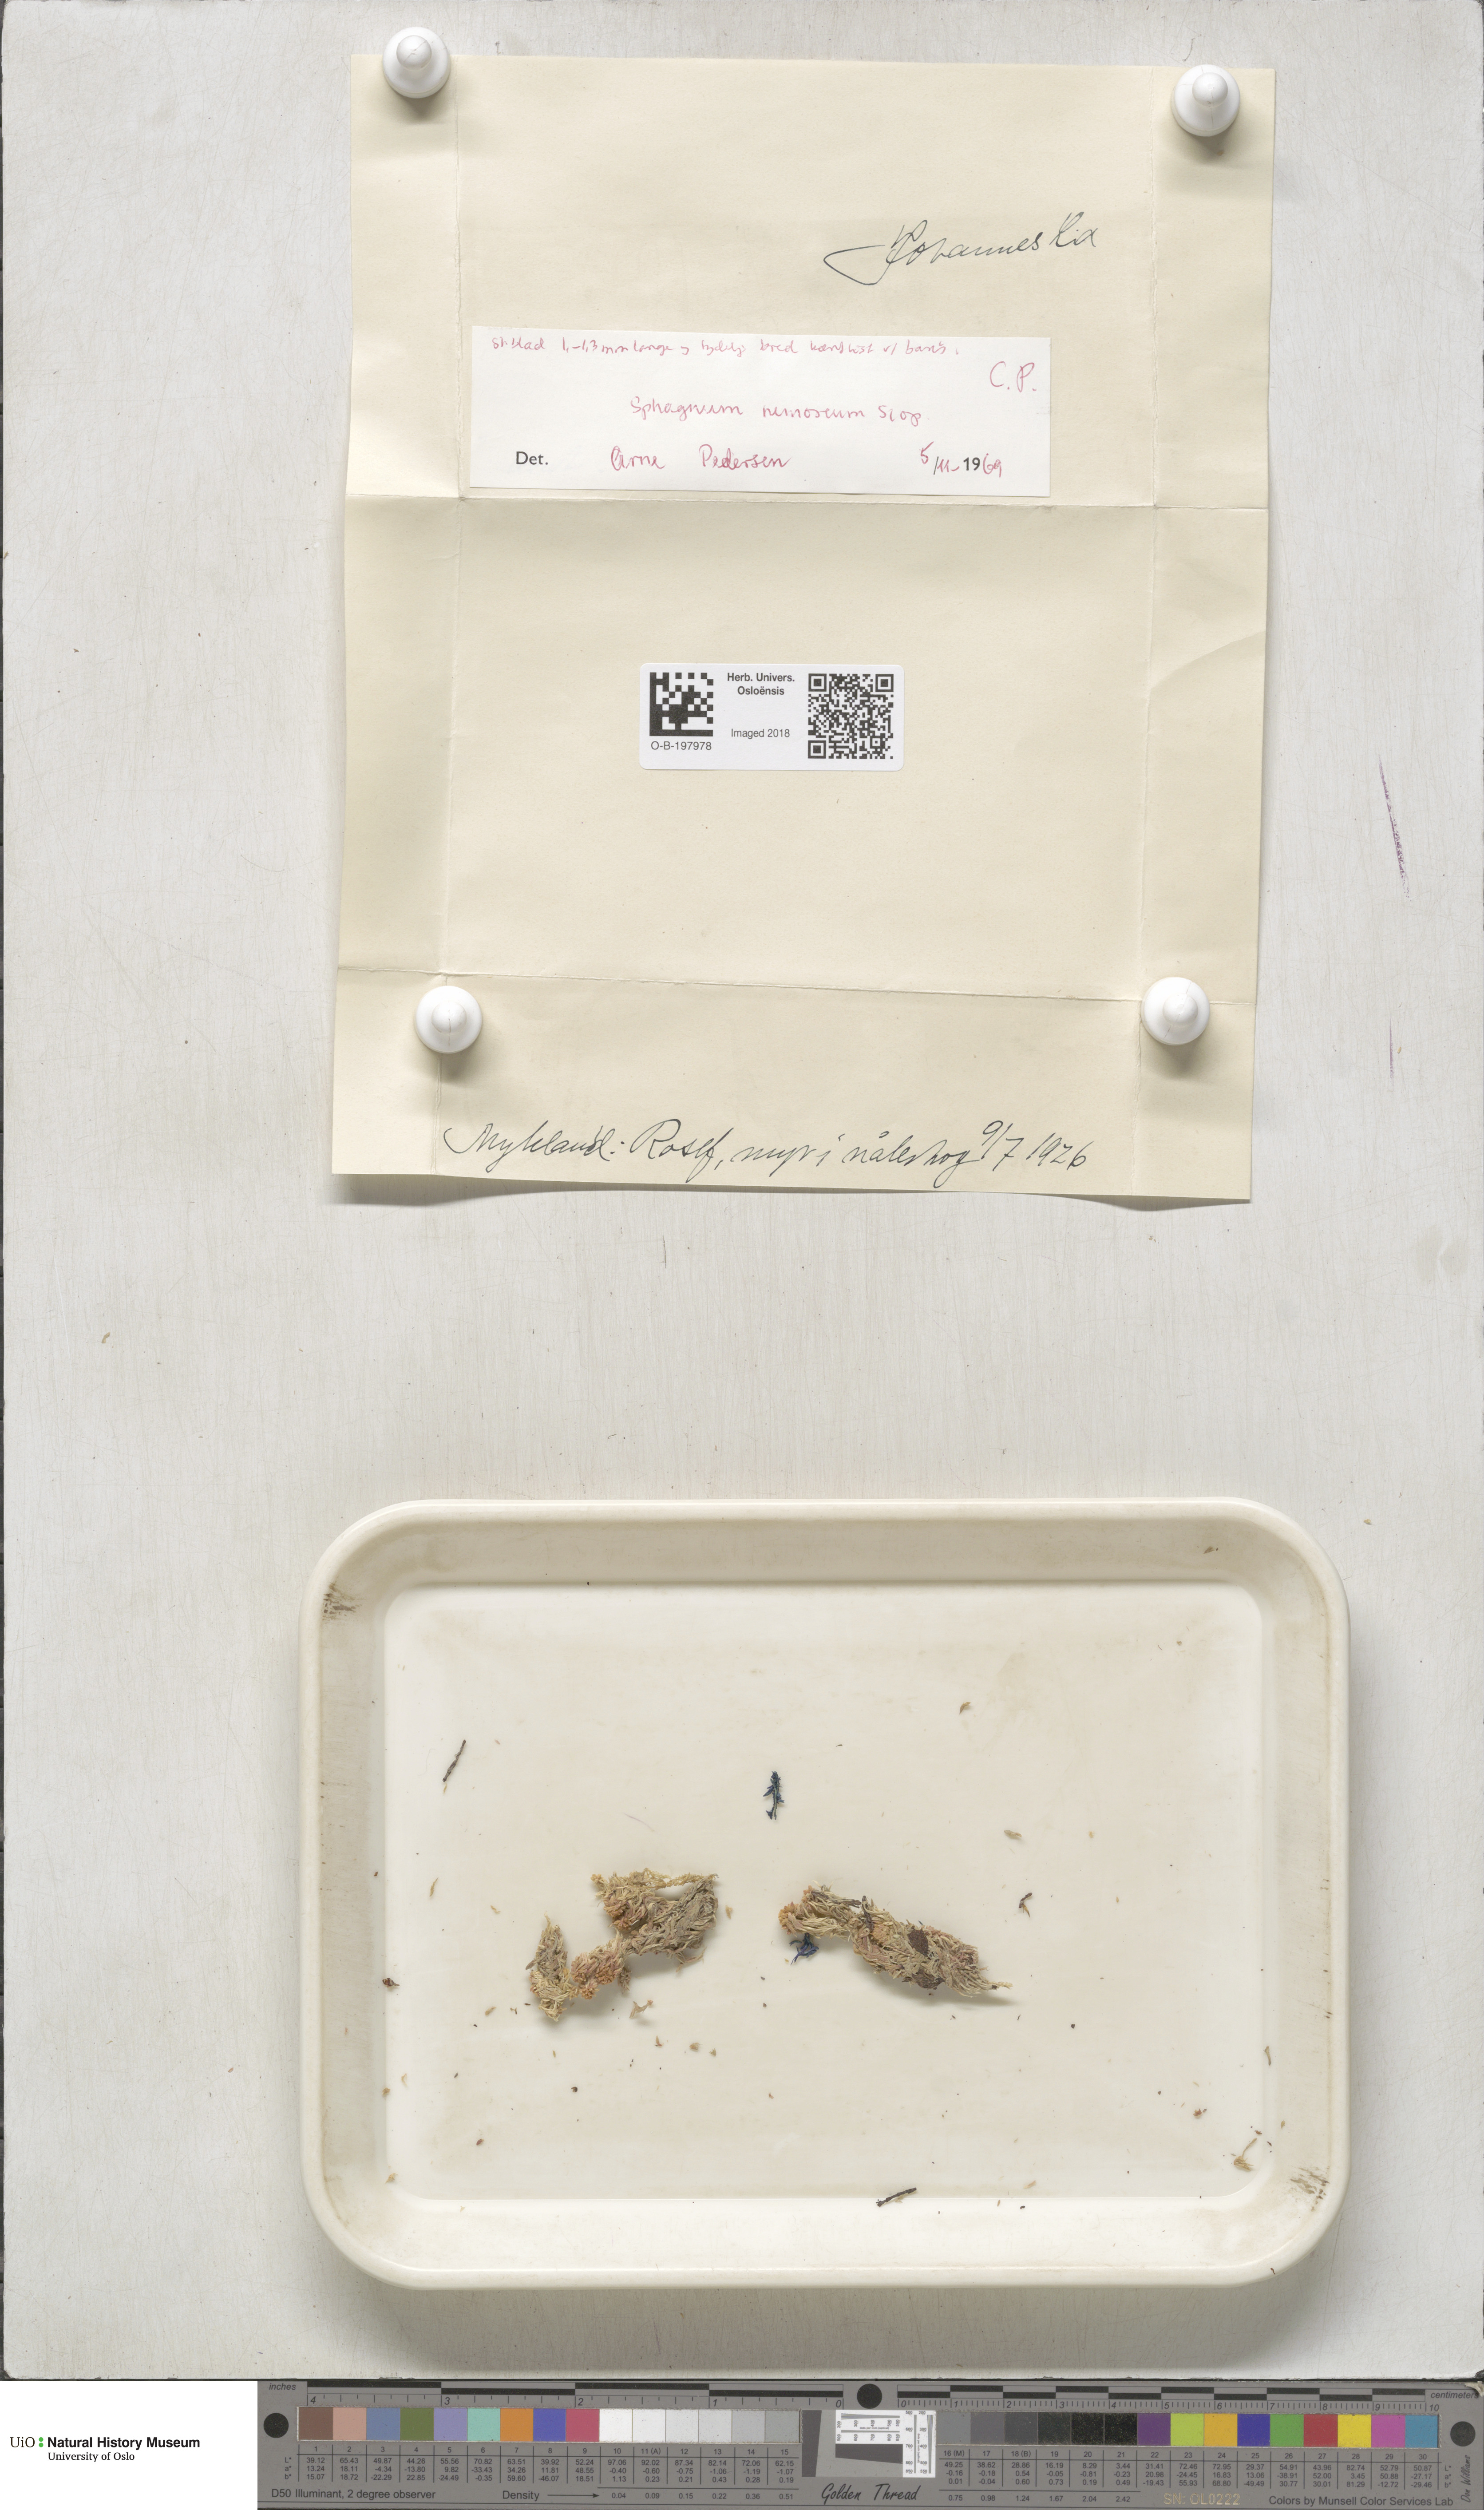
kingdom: Plantae
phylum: Bryophyta
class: Sphagnopsida
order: Sphagnales
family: Sphagnaceae
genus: Sphagnum
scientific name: Sphagnum capillifolium
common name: Small red peat moss
